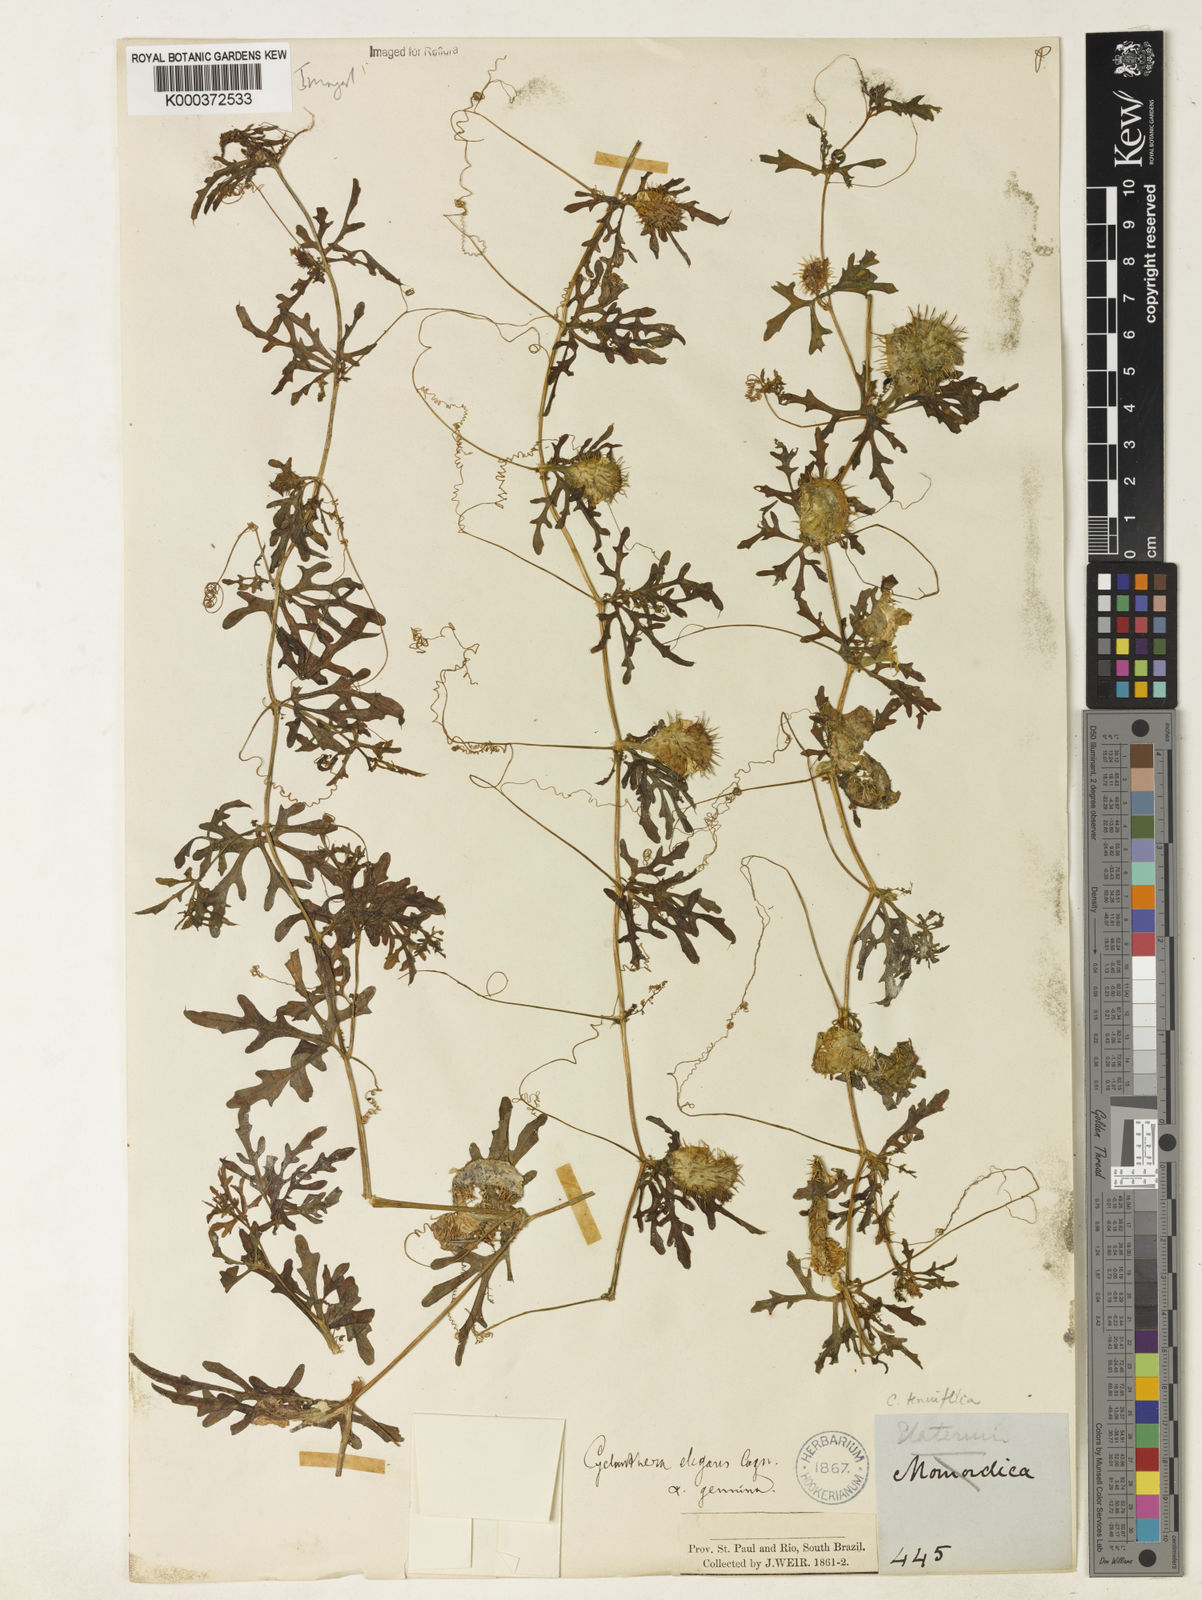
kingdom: Plantae
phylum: Tracheophyta
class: Magnoliopsida
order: Cucurbitales
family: Cucurbitaceae
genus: Cyclanthera
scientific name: Cyclanthera tenuifolia
